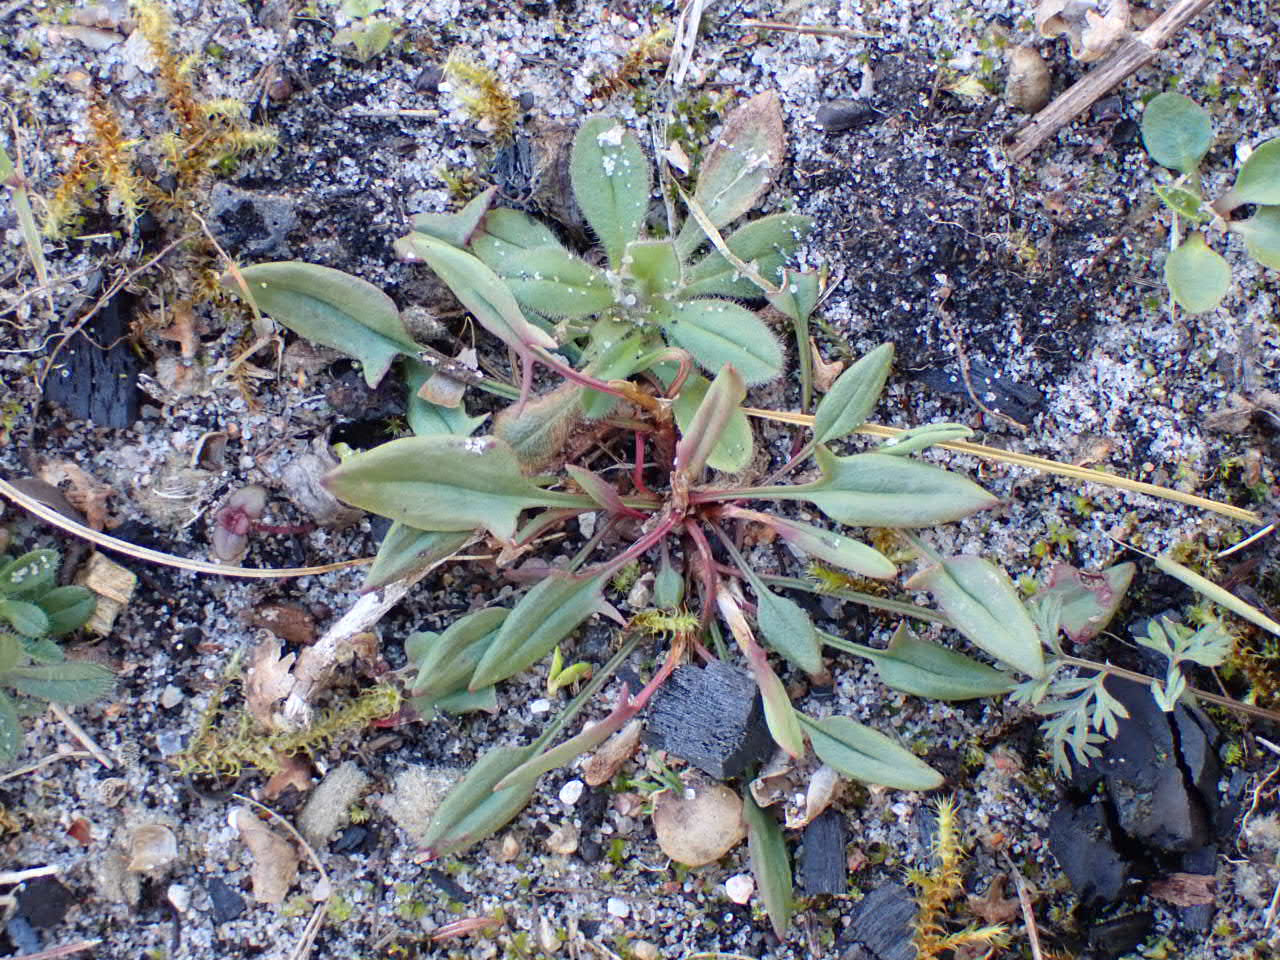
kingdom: Plantae
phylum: Tracheophyta
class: Magnoliopsida
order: Caryophyllales
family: Polygonaceae
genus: Rumex
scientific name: Rumex acetosella
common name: Rødknæ
